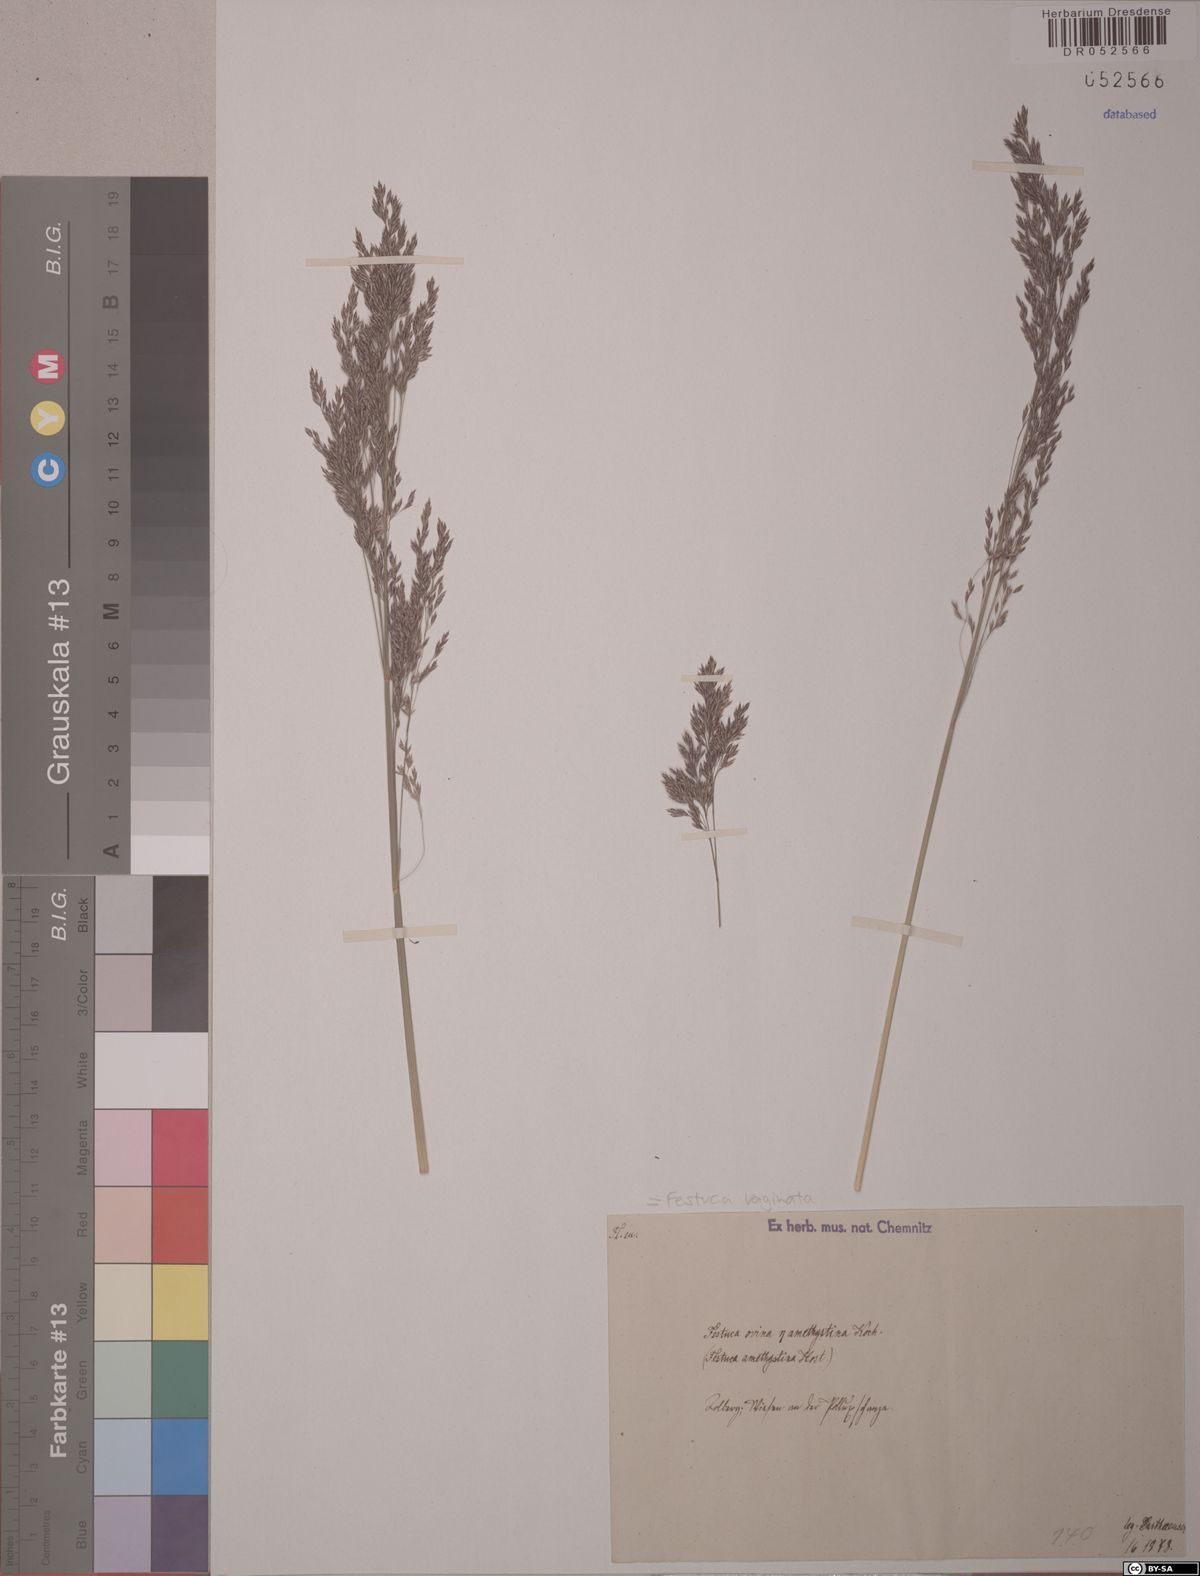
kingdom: Plantae
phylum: Tracheophyta
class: Liliopsida
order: Poales
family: Poaceae
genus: Festuca
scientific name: Festuca vaginata
